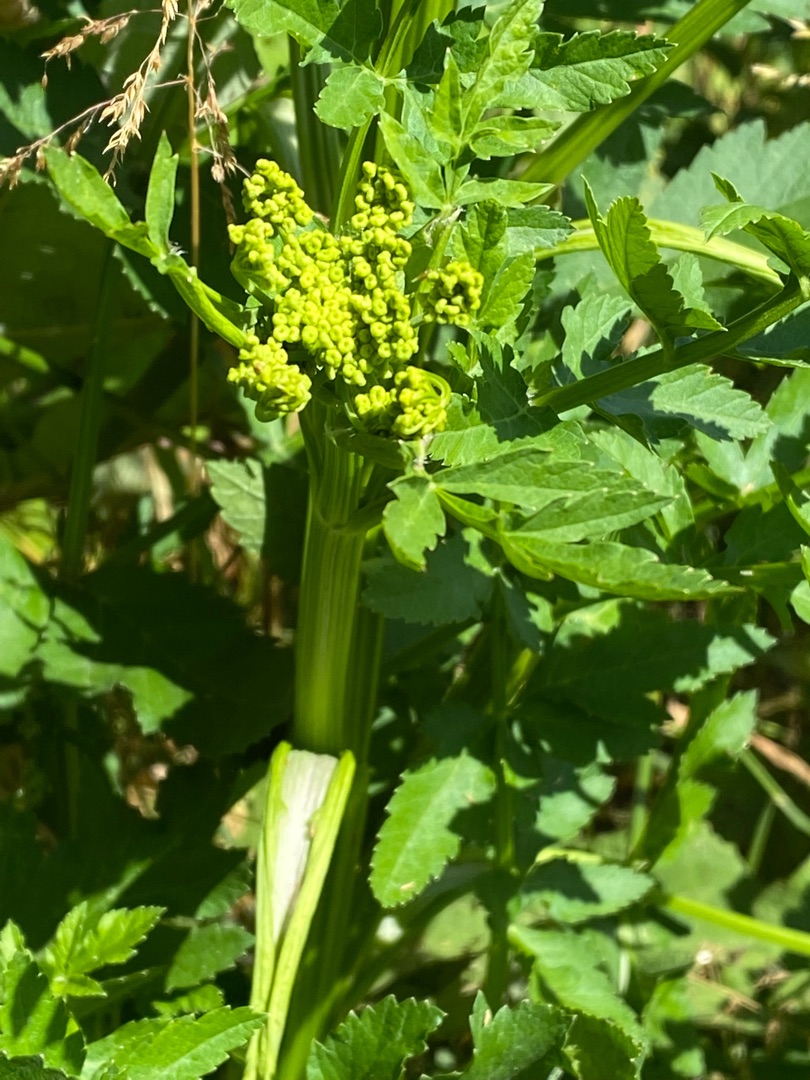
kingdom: Plantae
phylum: Tracheophyta
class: Magnoliopsida
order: Apiales
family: Apiaceae
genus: Pastinaca
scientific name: Pastinaca sativa
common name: Pastinak
